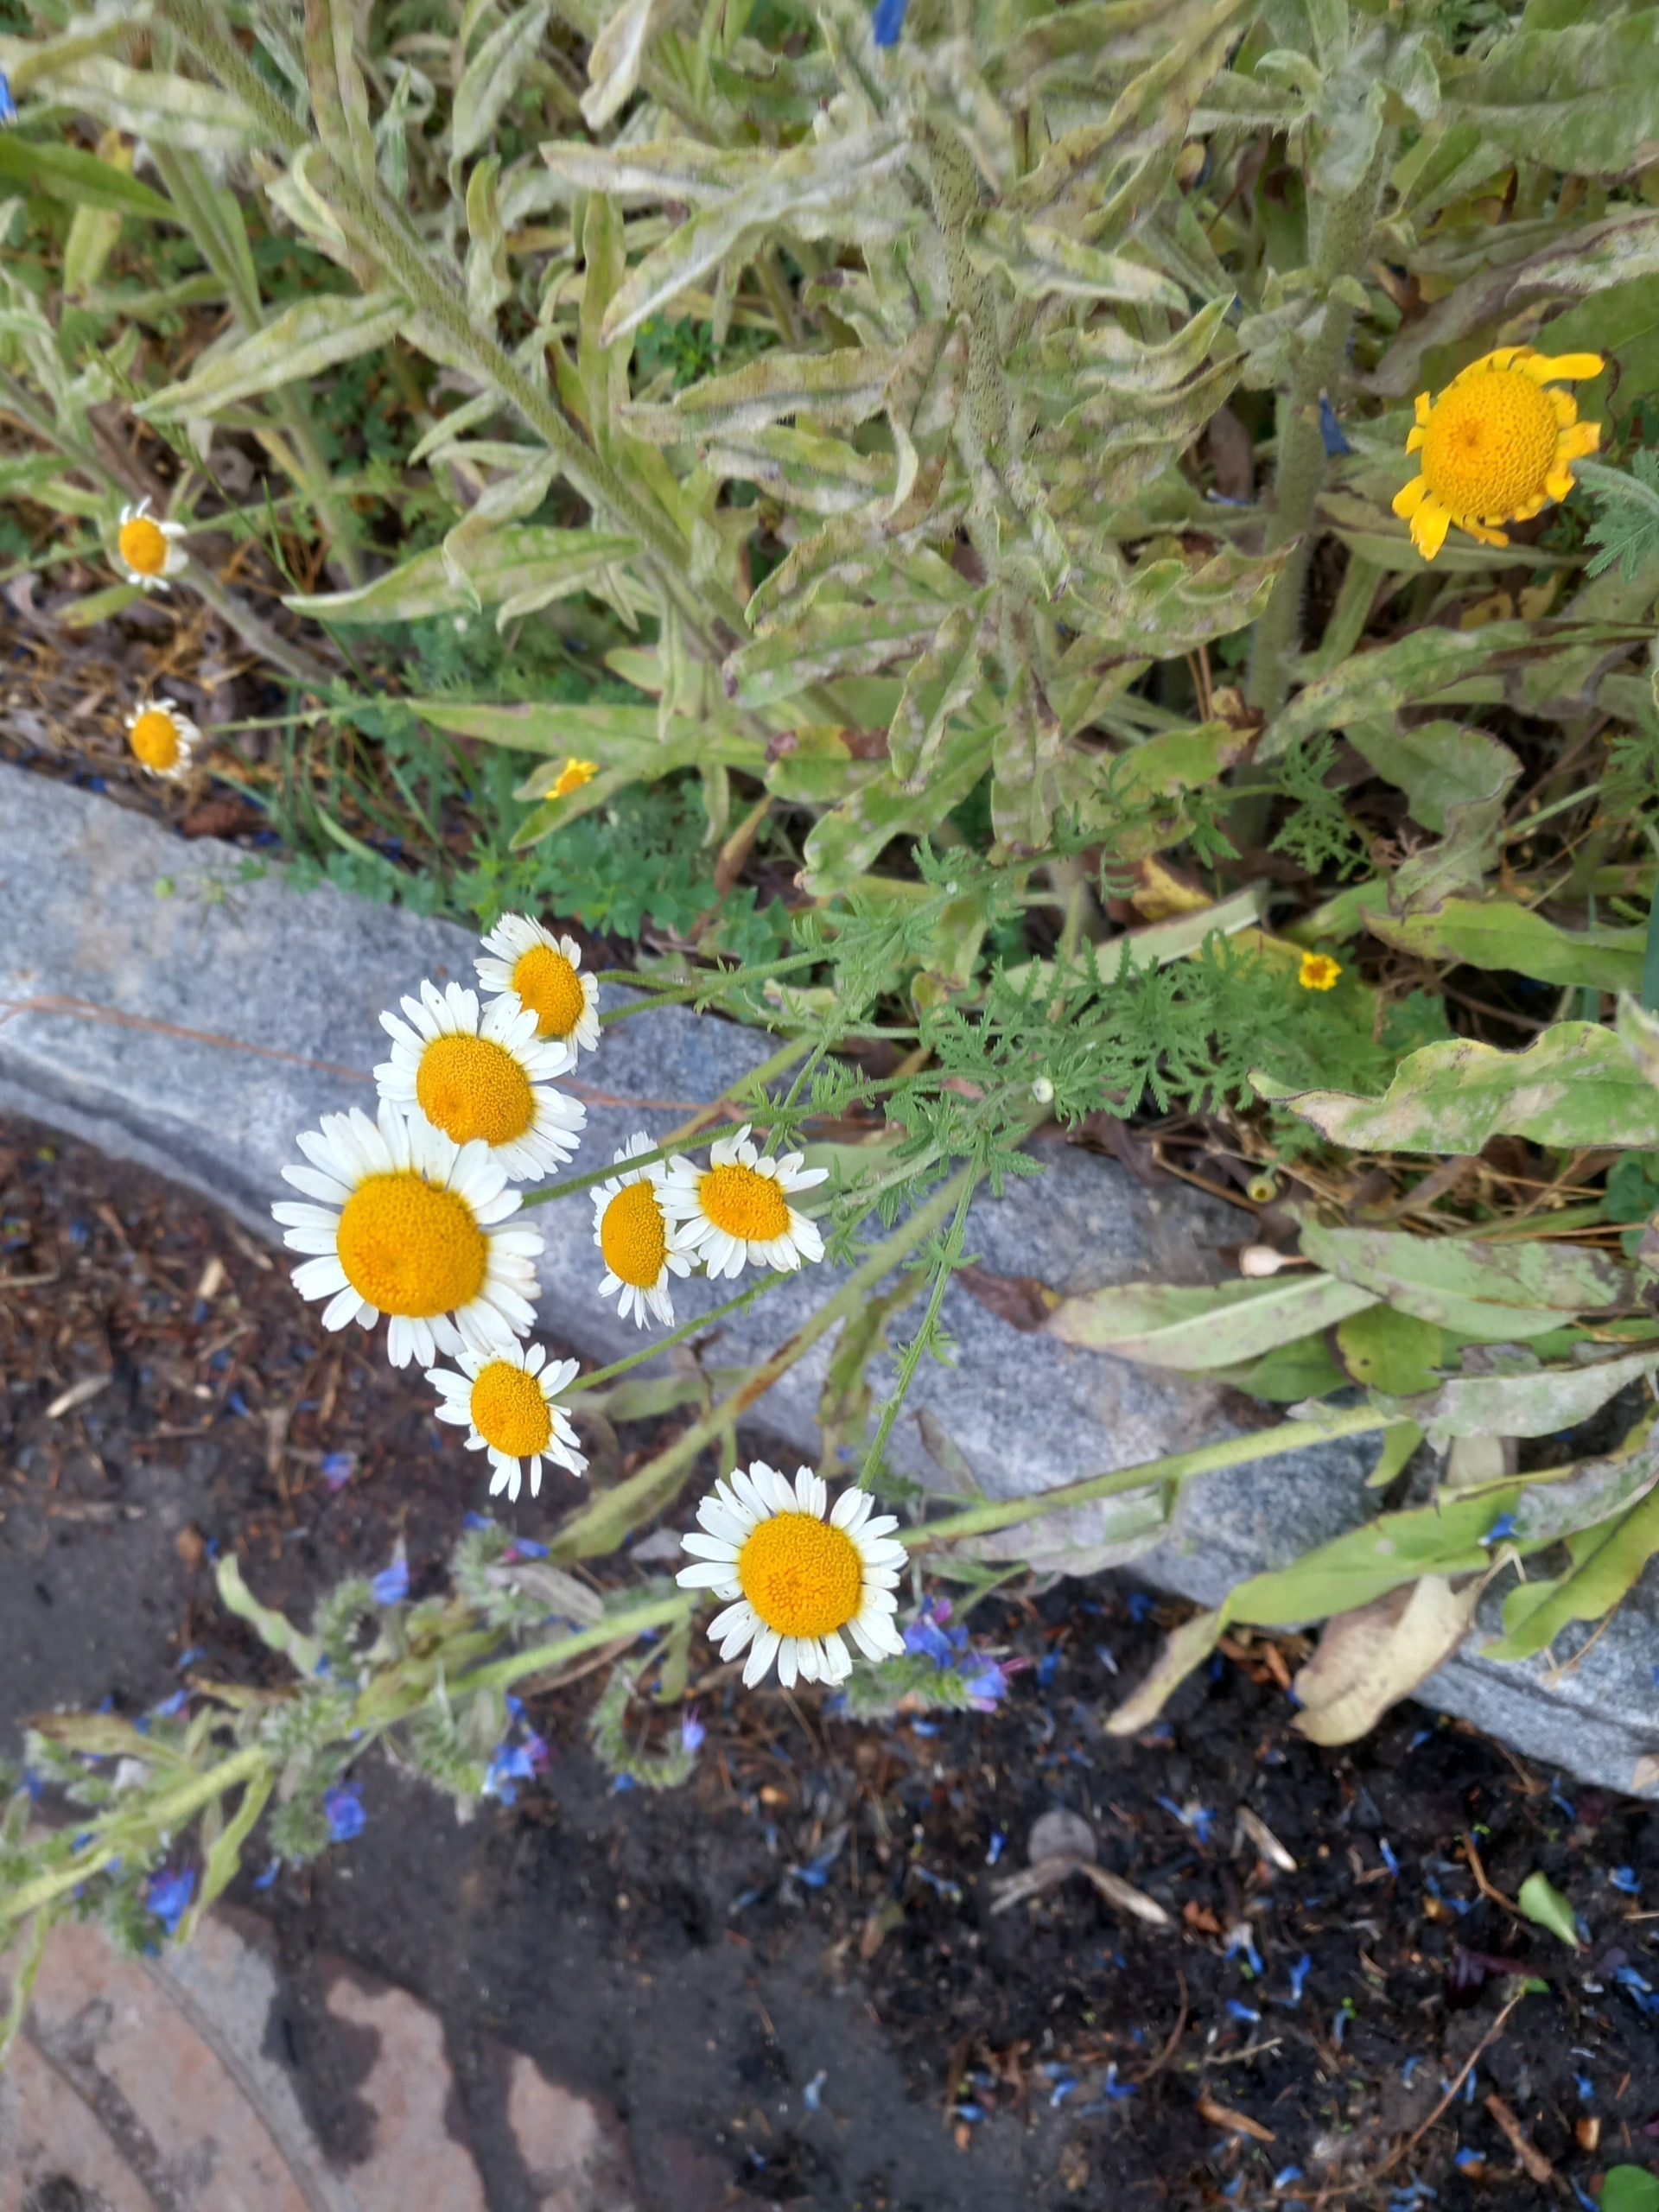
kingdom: Plantae
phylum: Tracheophyta
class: Magnoliopsida
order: Asterales
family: Asteraceae
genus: Cota
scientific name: Cota tinctoria
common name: Farve-gåseurt
